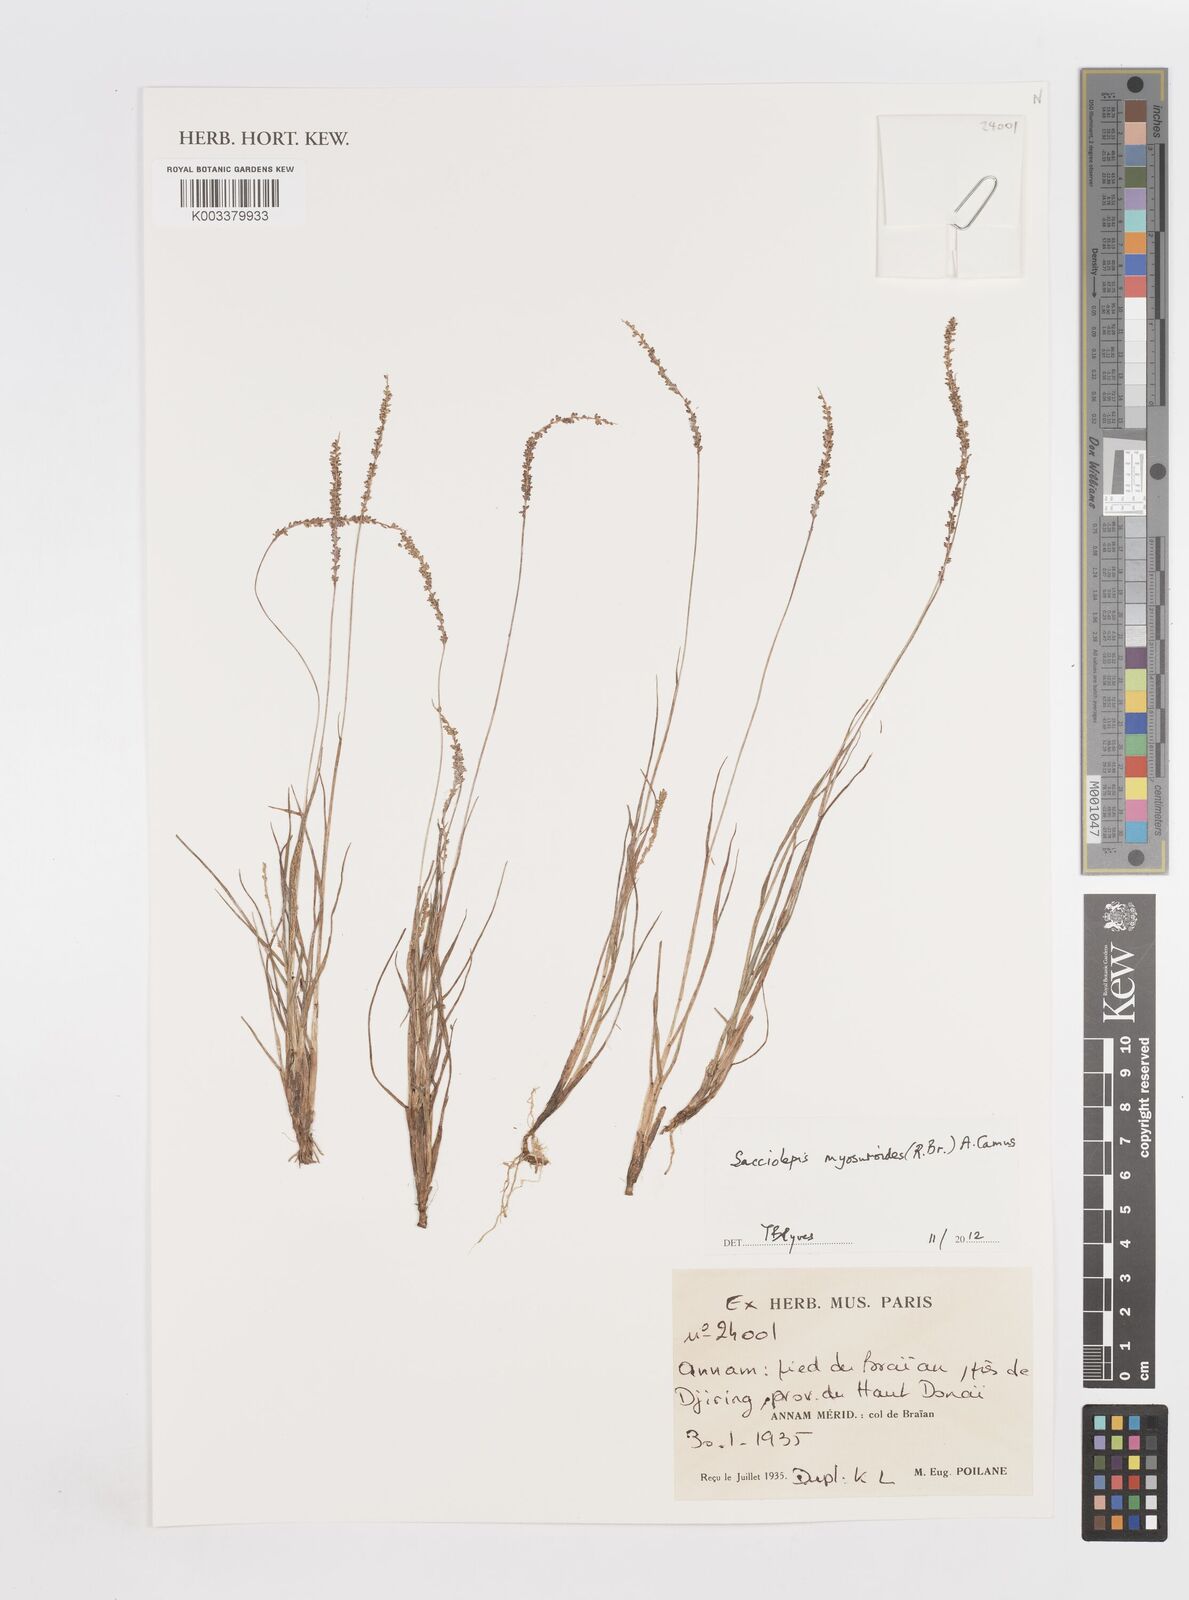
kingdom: Plantae
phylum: Tracheophyta
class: Liliopsida
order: Poales
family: Poaceae
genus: Sacciolepis
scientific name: Sacciolepis myosuroides
